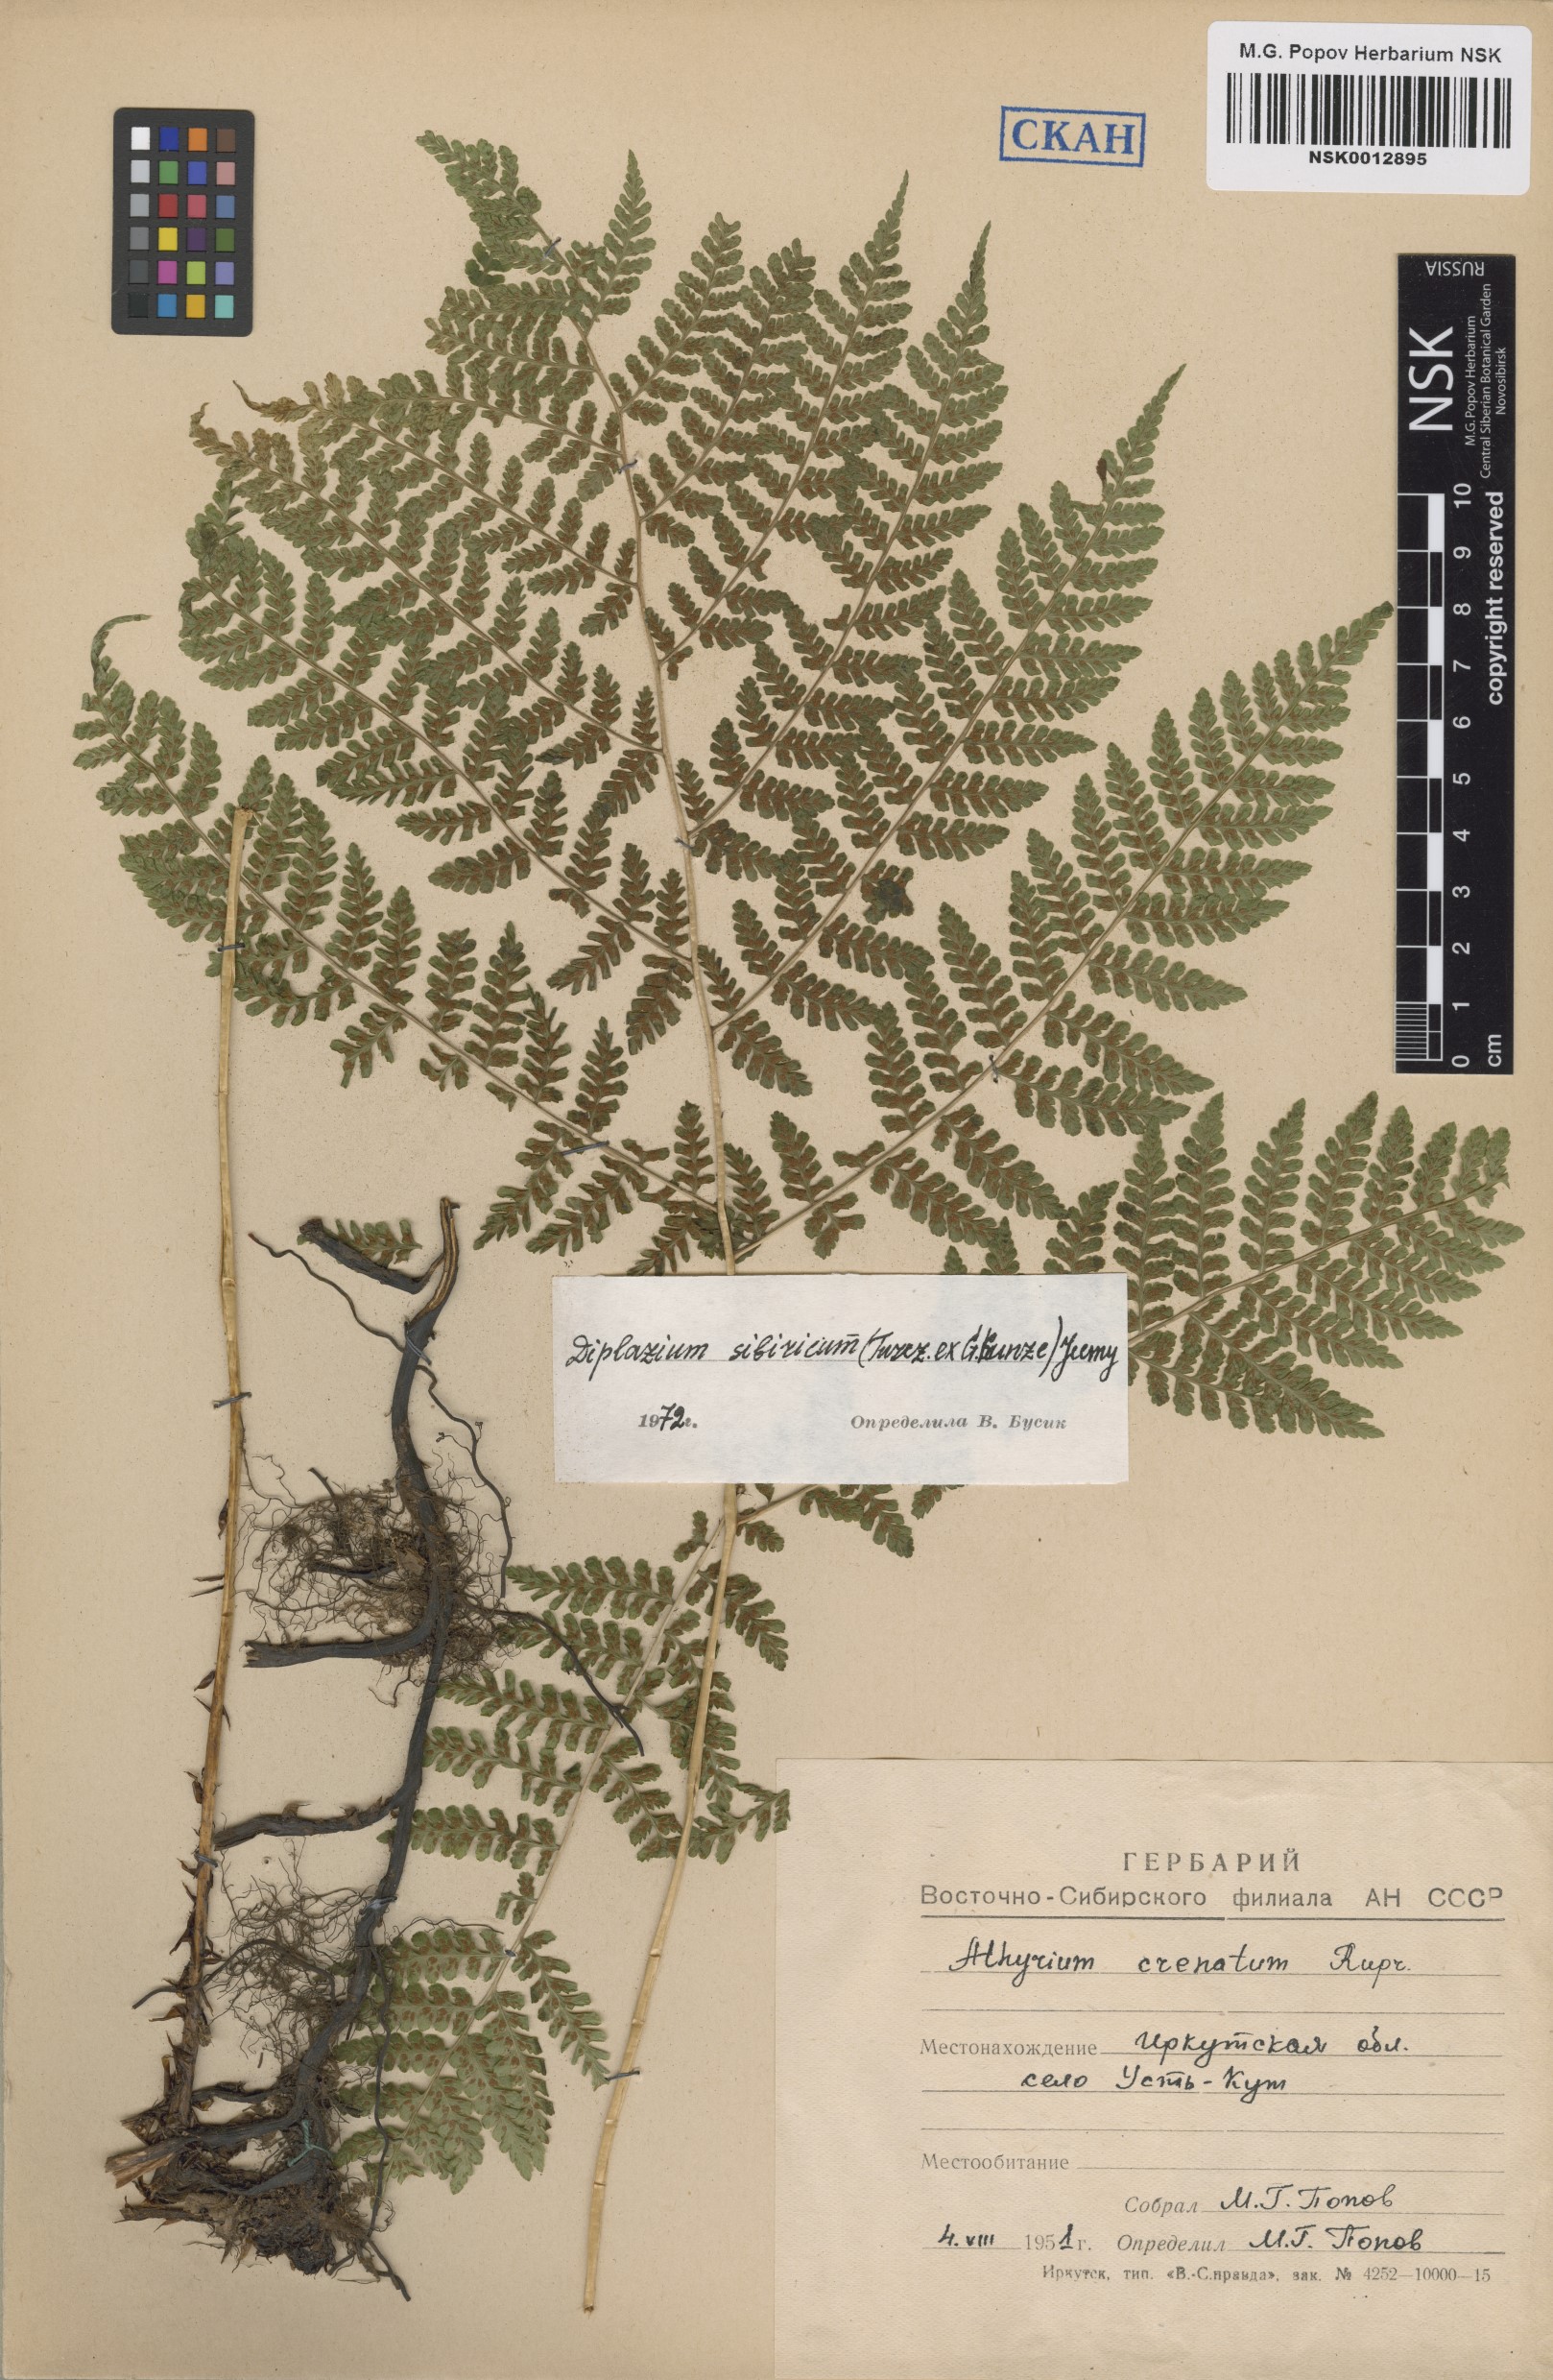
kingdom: Plantae
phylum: Tracheophyta
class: Polypodiopsida
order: Polypodiales
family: Athyriaceae
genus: Diplazium
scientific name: Diplazium sibiricum
